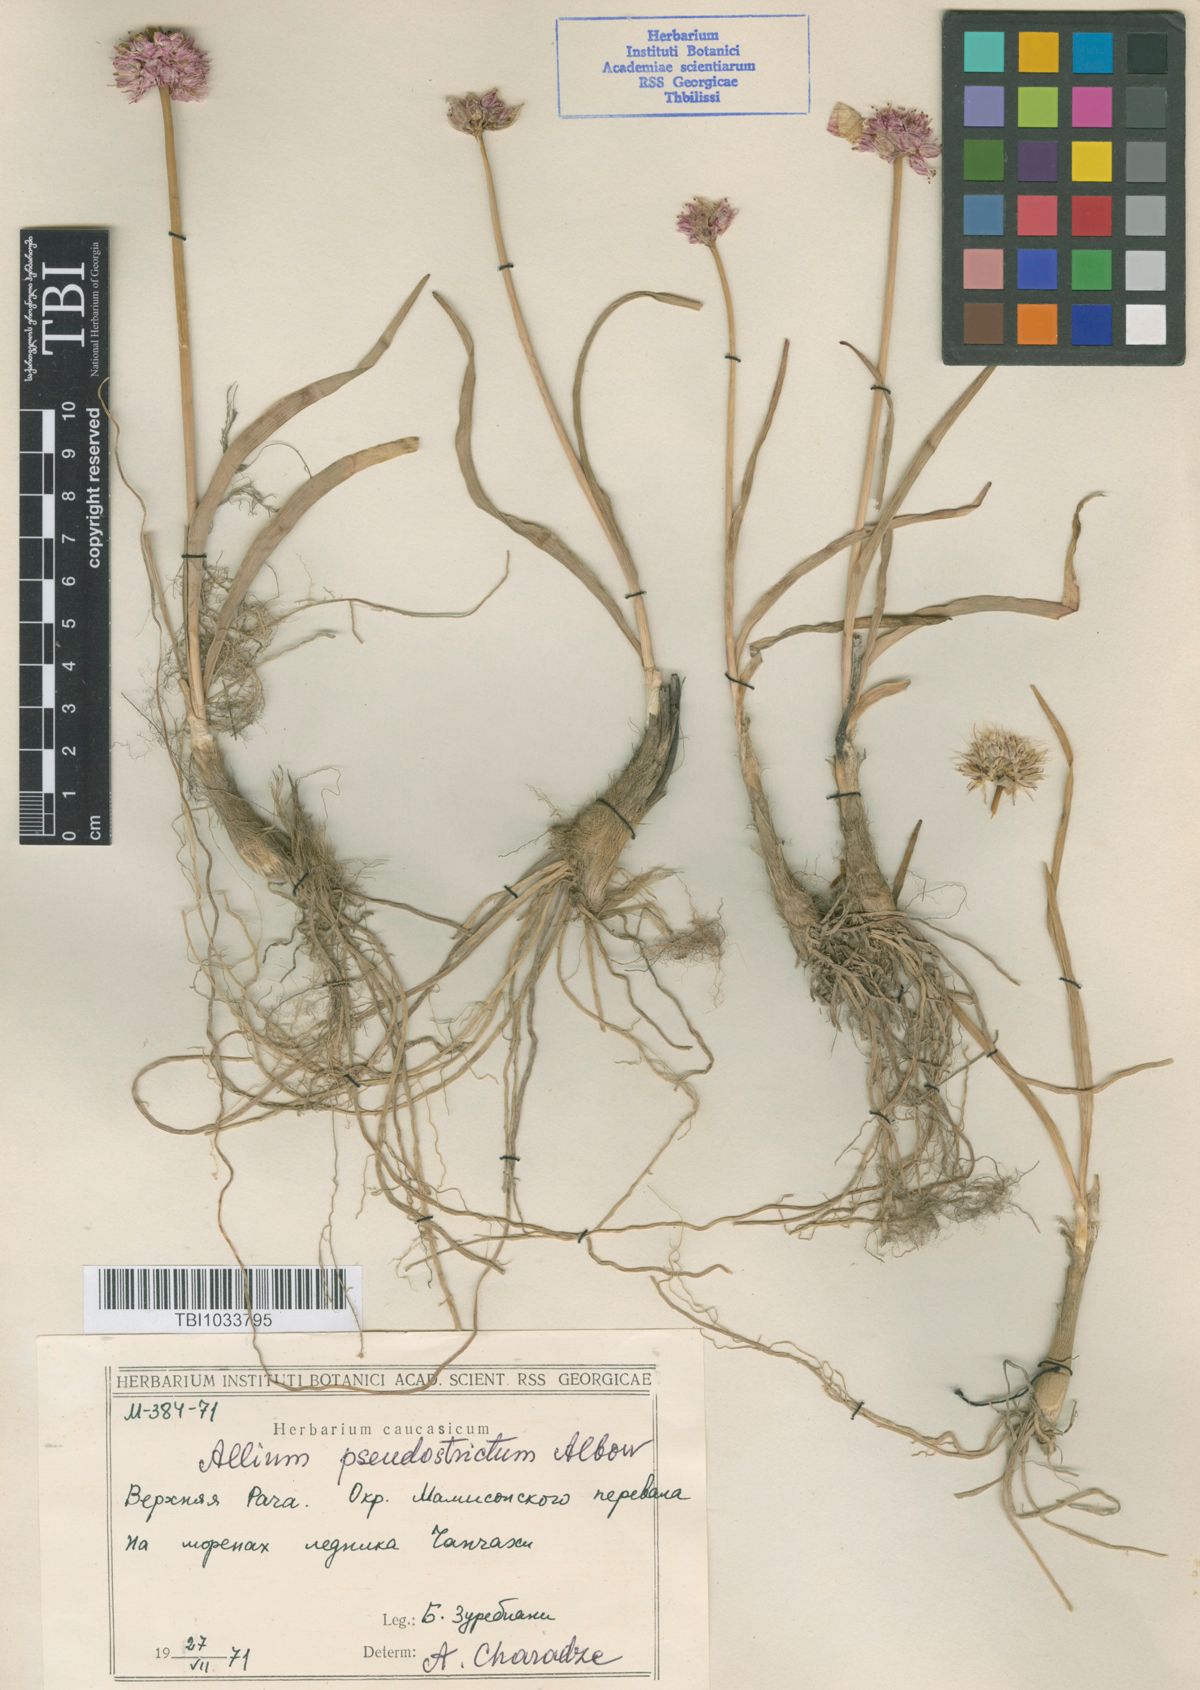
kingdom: Plantae
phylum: Tracheophyta
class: Liliopsida
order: Asparagales
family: Amaryllidaceae
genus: Allium
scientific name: Allium pseudostrictum
